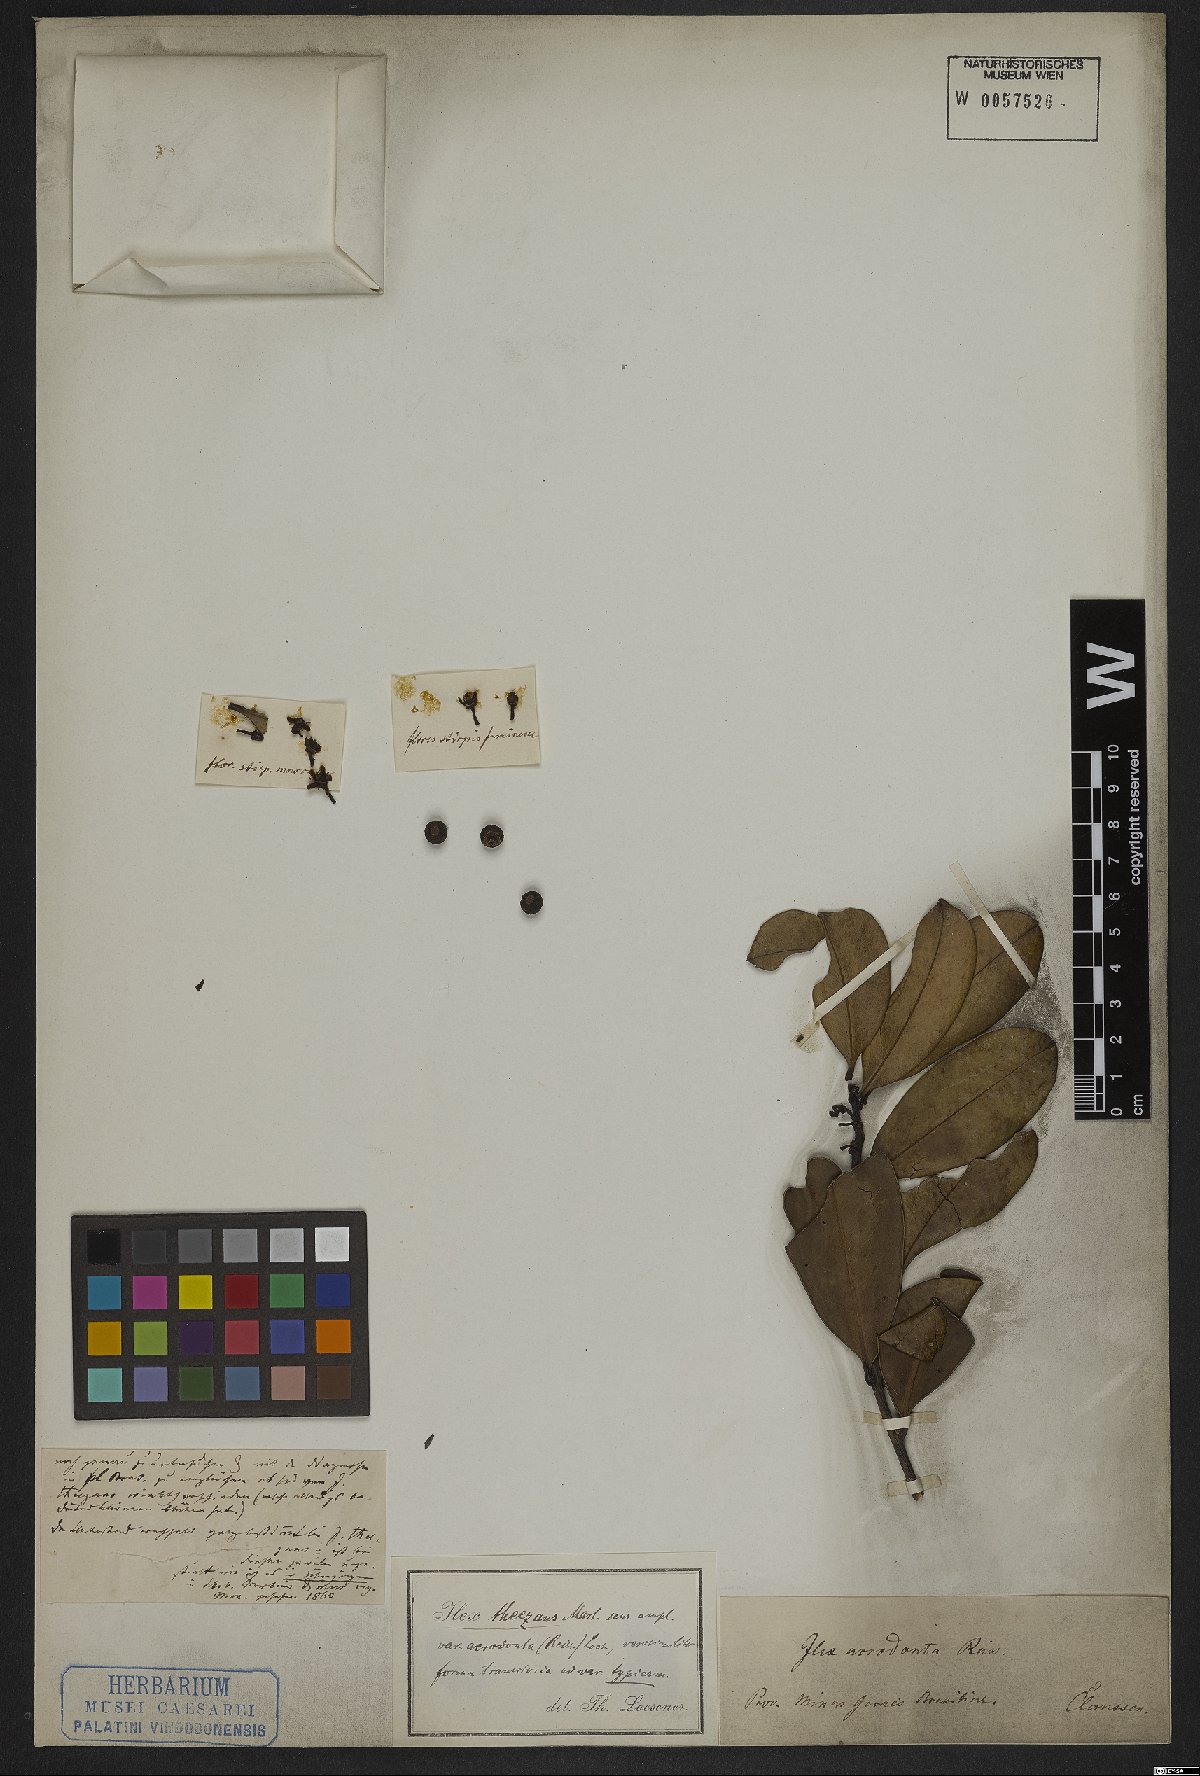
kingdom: Plantae
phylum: Tracheophyta
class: Magnoliopsida
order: Aquifoliales
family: Aquifoliaceae
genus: Ilex
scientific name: Ilex theezans
